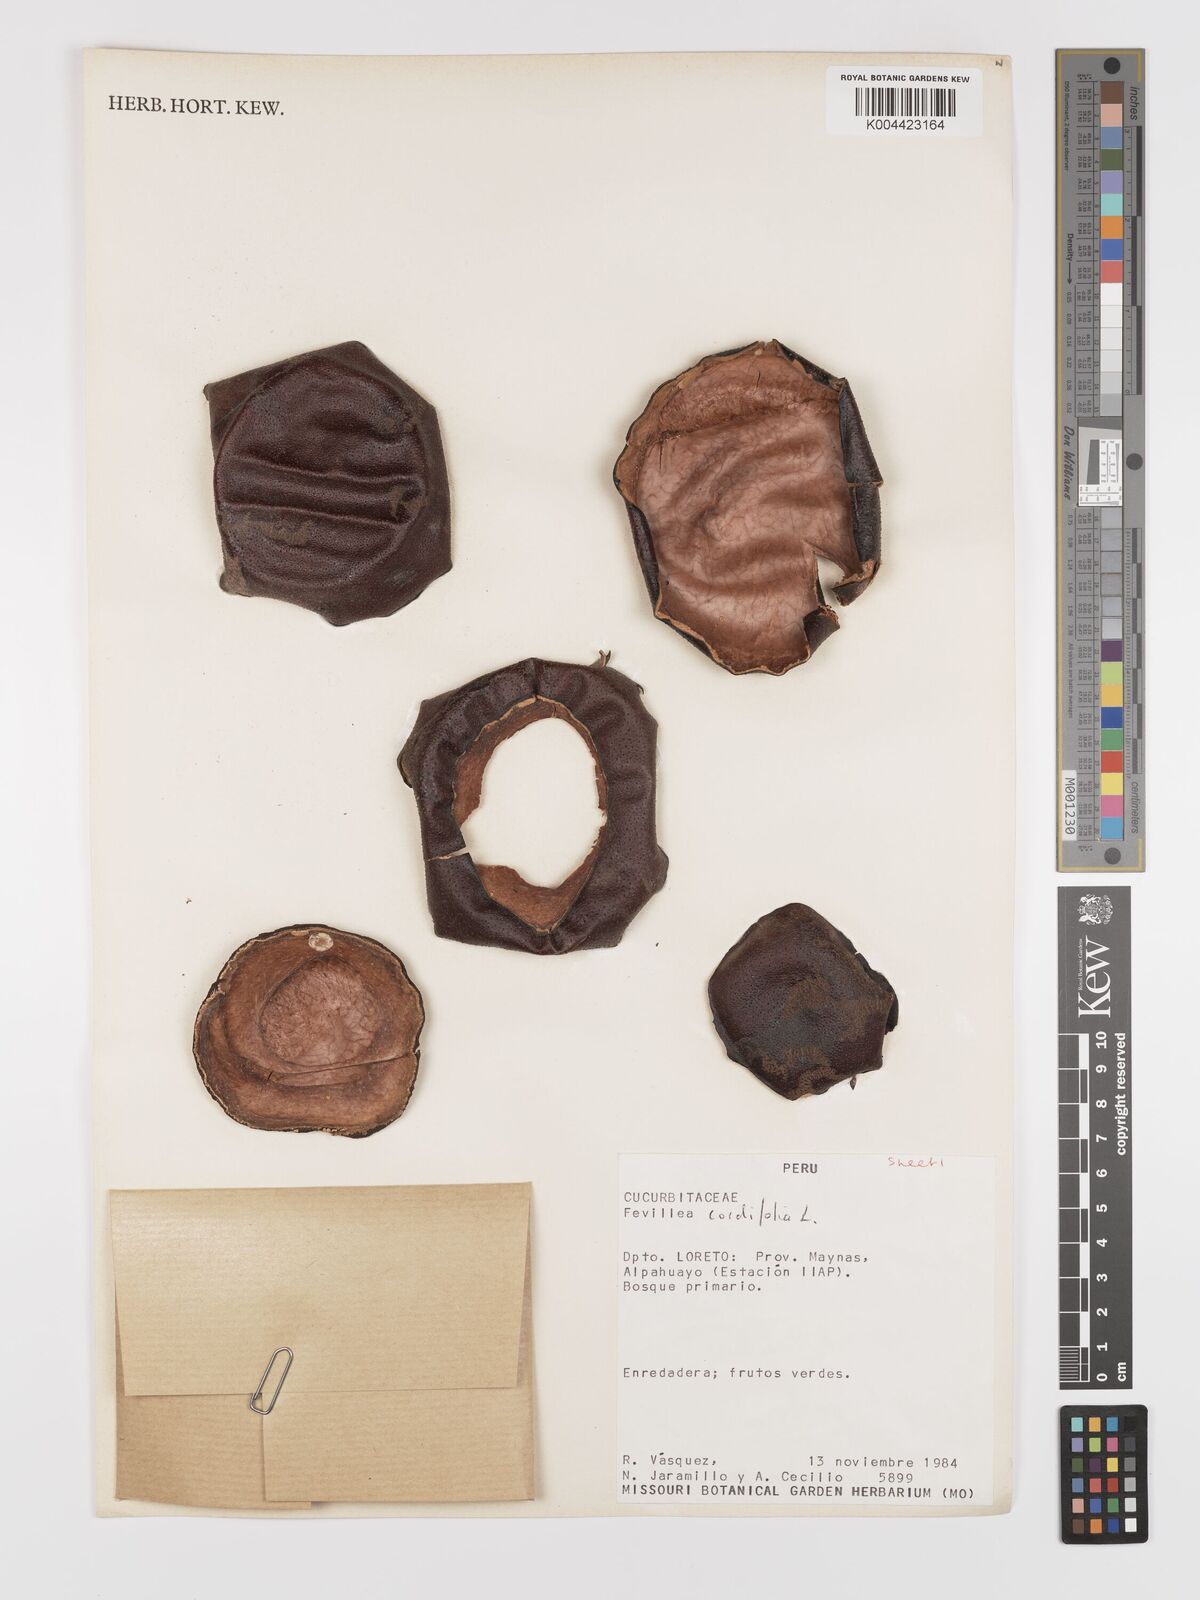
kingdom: Plantae
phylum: Tracheophyta
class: Magnoliopsida
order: Cucurbitales
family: Cucurbitaceae
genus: Fevillea
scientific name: Fevillea
